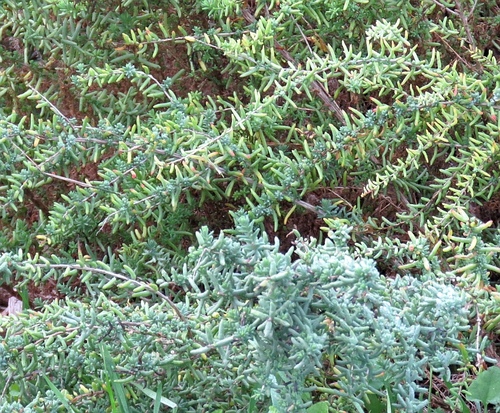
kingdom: Plantae
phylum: Tracheophyta
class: Magnoliopsida
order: Caryophyllales
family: Amaranthaceae
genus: Suaeda
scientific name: Suaeda vera
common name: Shrubby sea-blite
